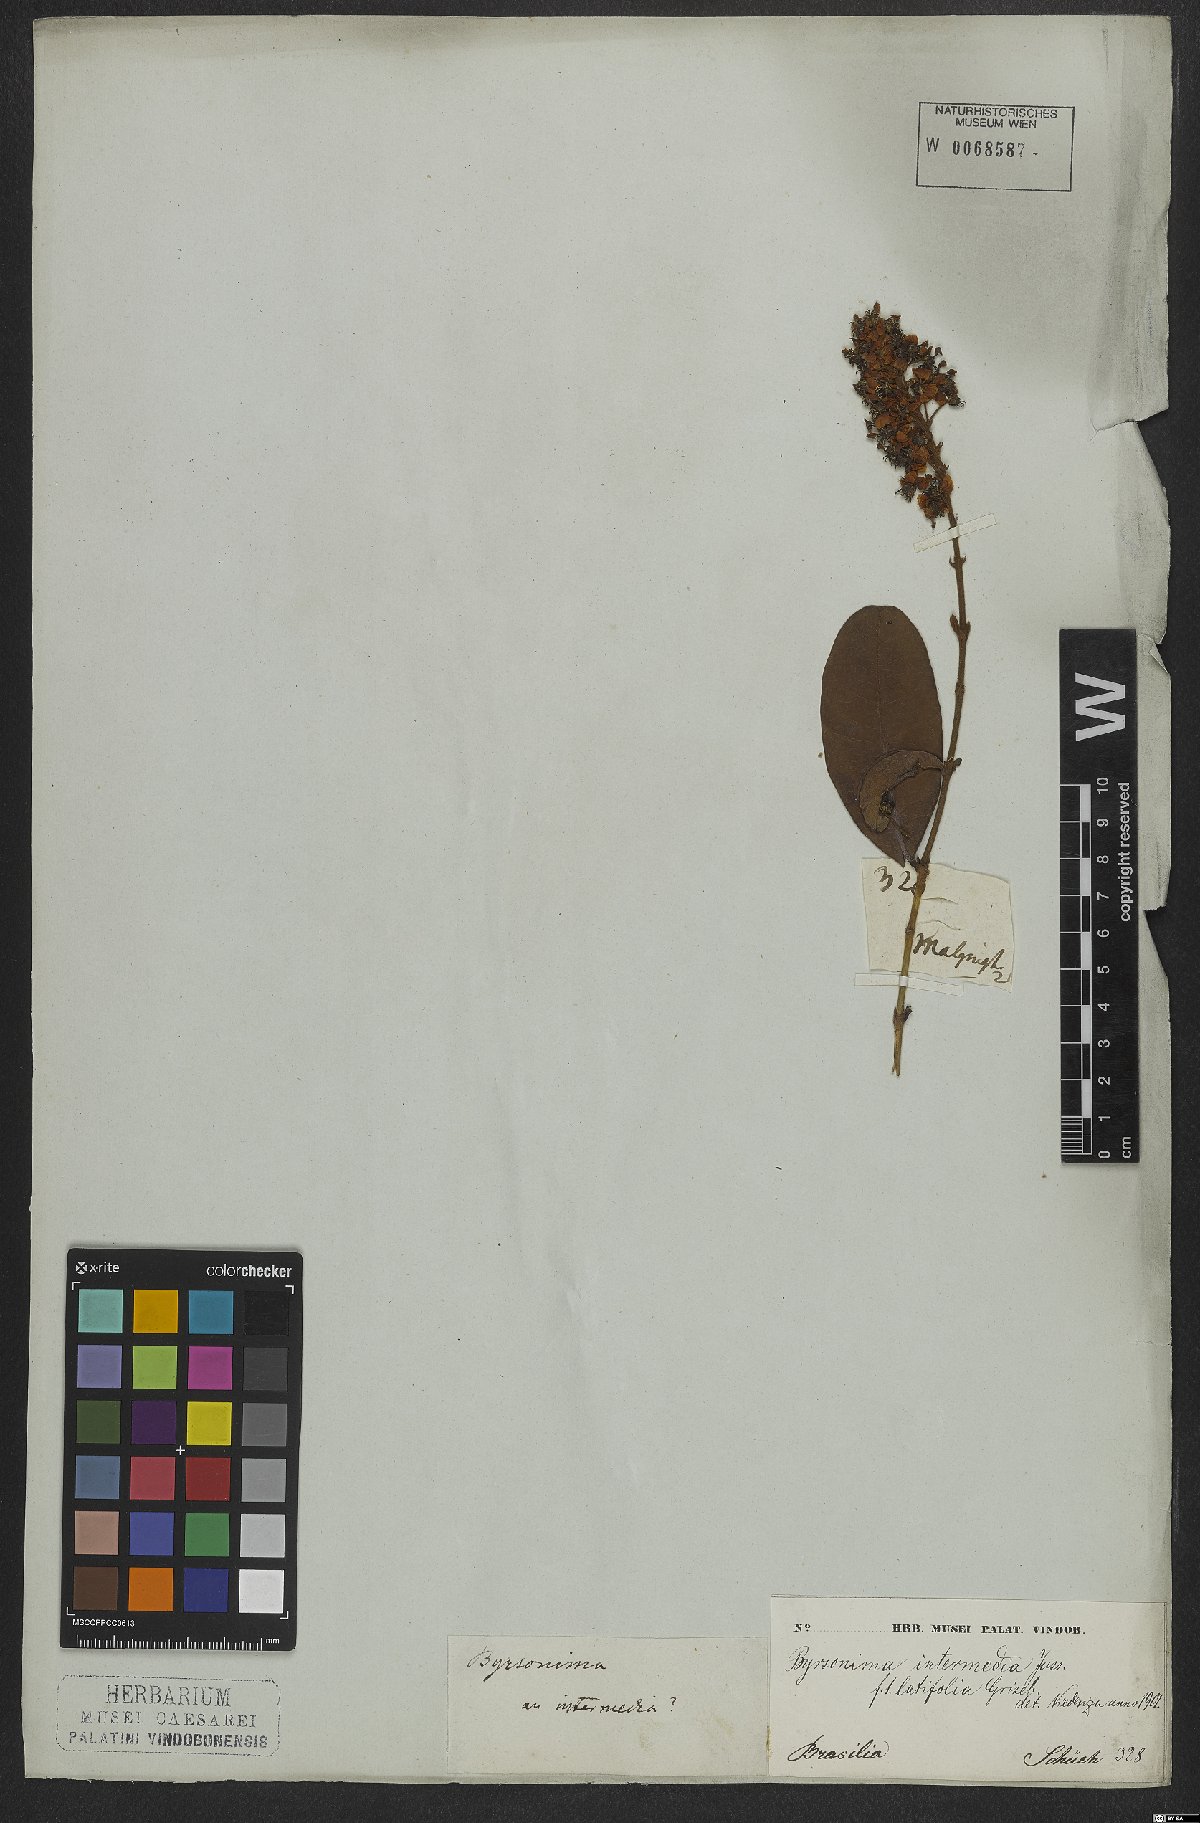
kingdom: Plantae
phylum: Tracheophyta
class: Magnoliopsida
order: Malpighiales
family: Malpighiaceae
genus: Byrsonima
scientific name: Byrsonima intermedia
